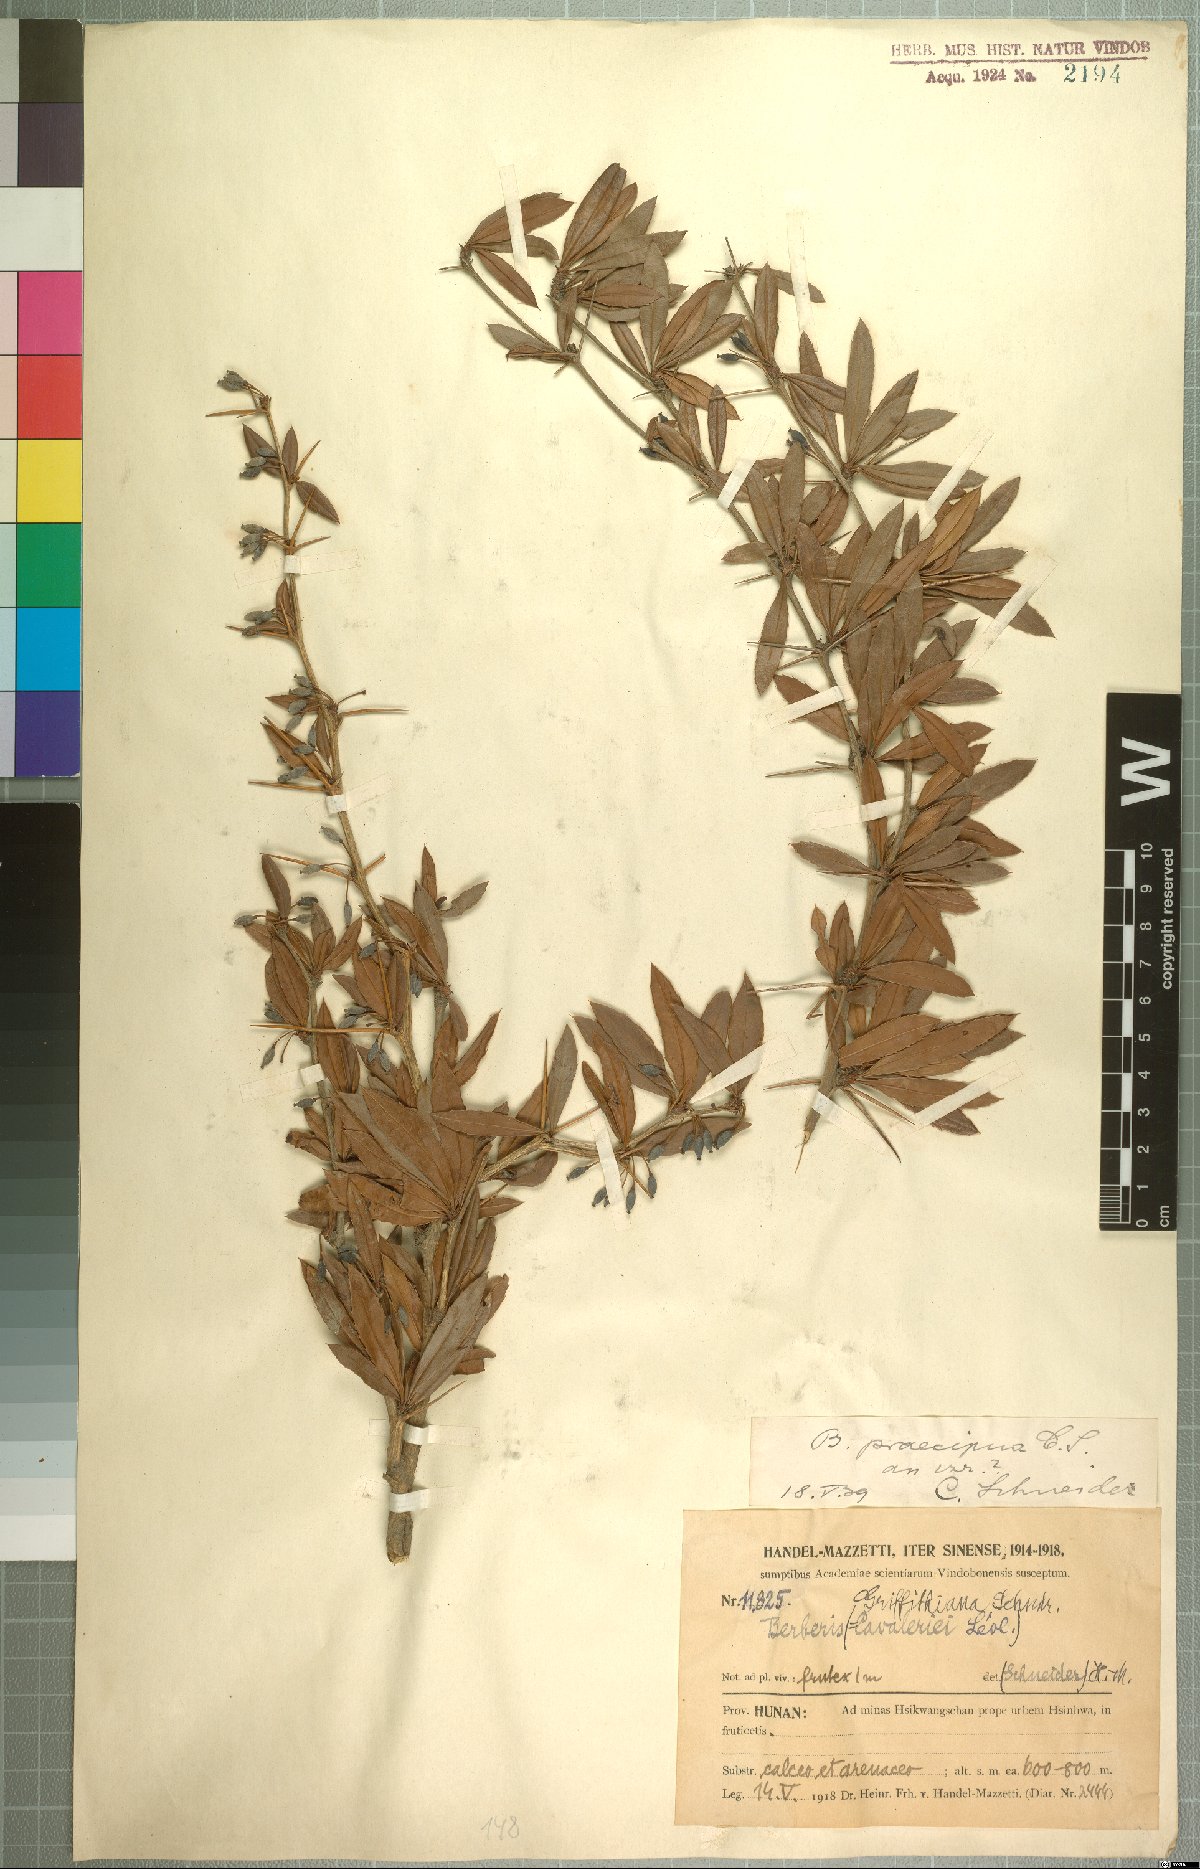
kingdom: Plantae
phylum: Tracheophyta
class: Magnoliopsida
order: Ranunculales
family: Berberidaceae
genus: Berberis
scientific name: Berberis praecipua
